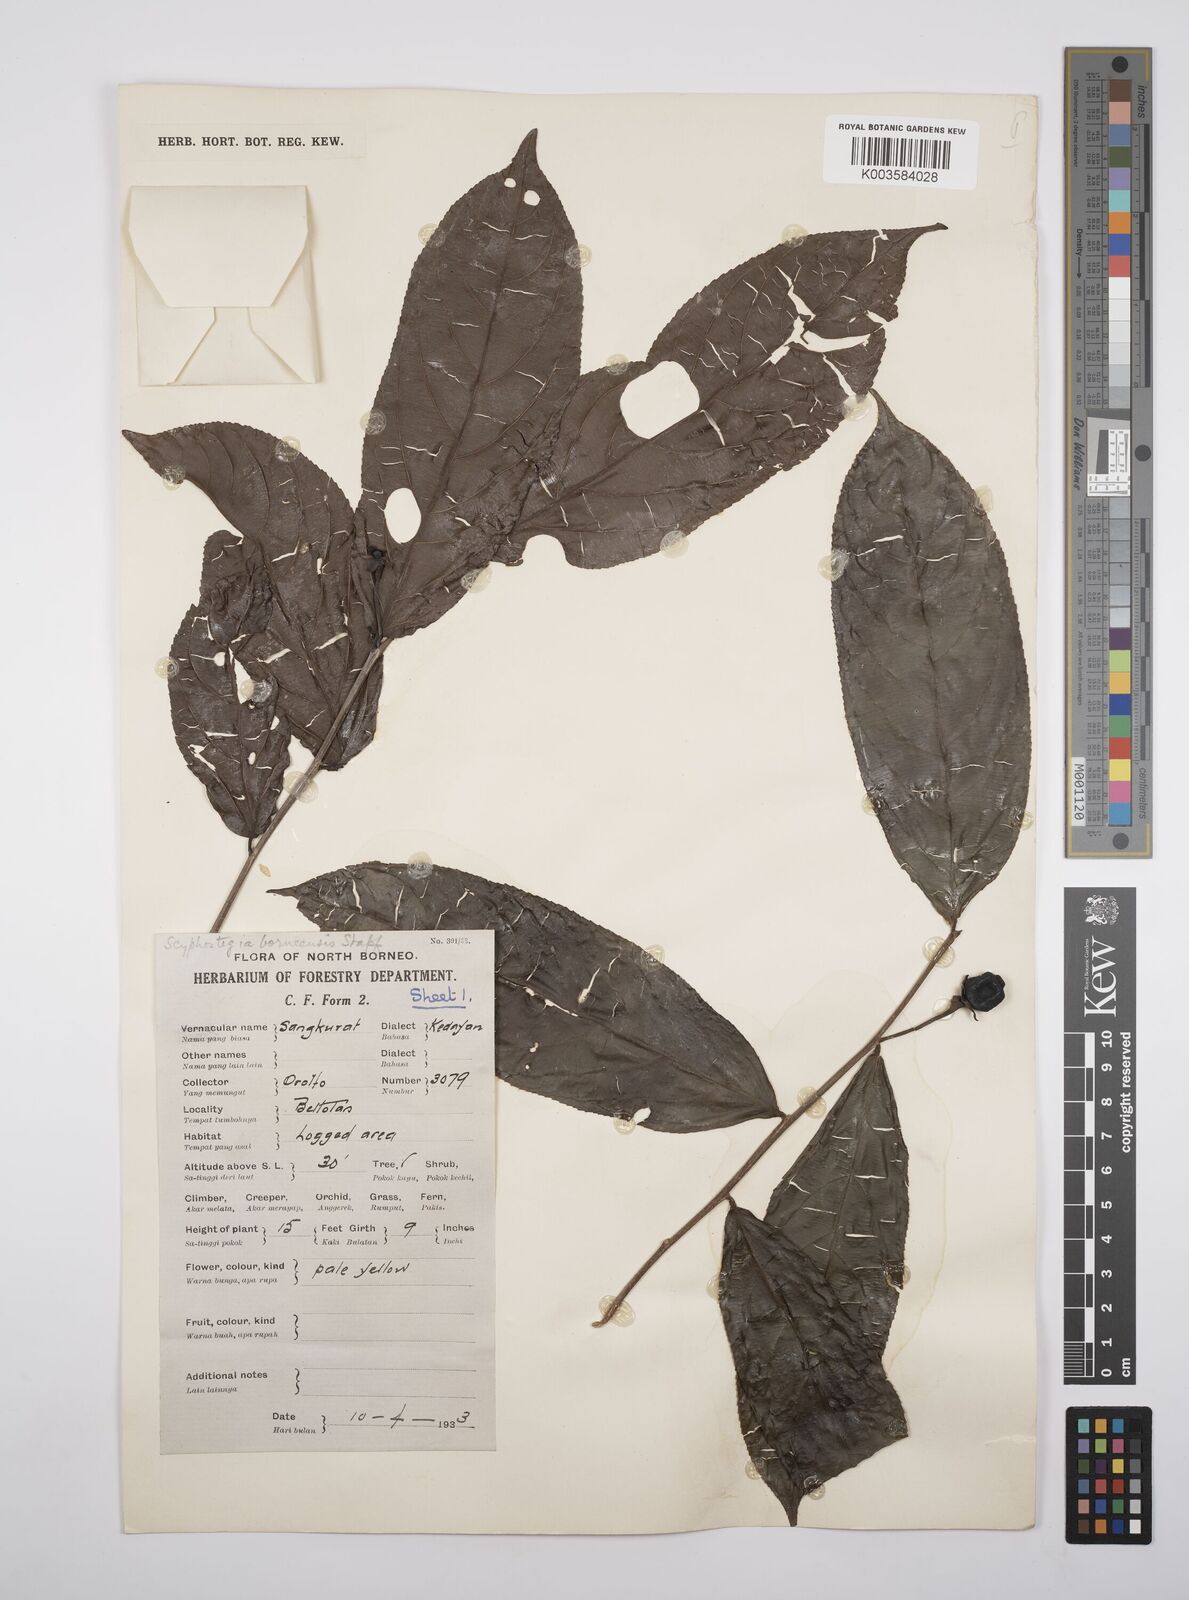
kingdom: Plantae
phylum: Tracheophyta
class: Magnoliopsida
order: Malpighiales
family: Salicaceae
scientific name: Salicaceae
